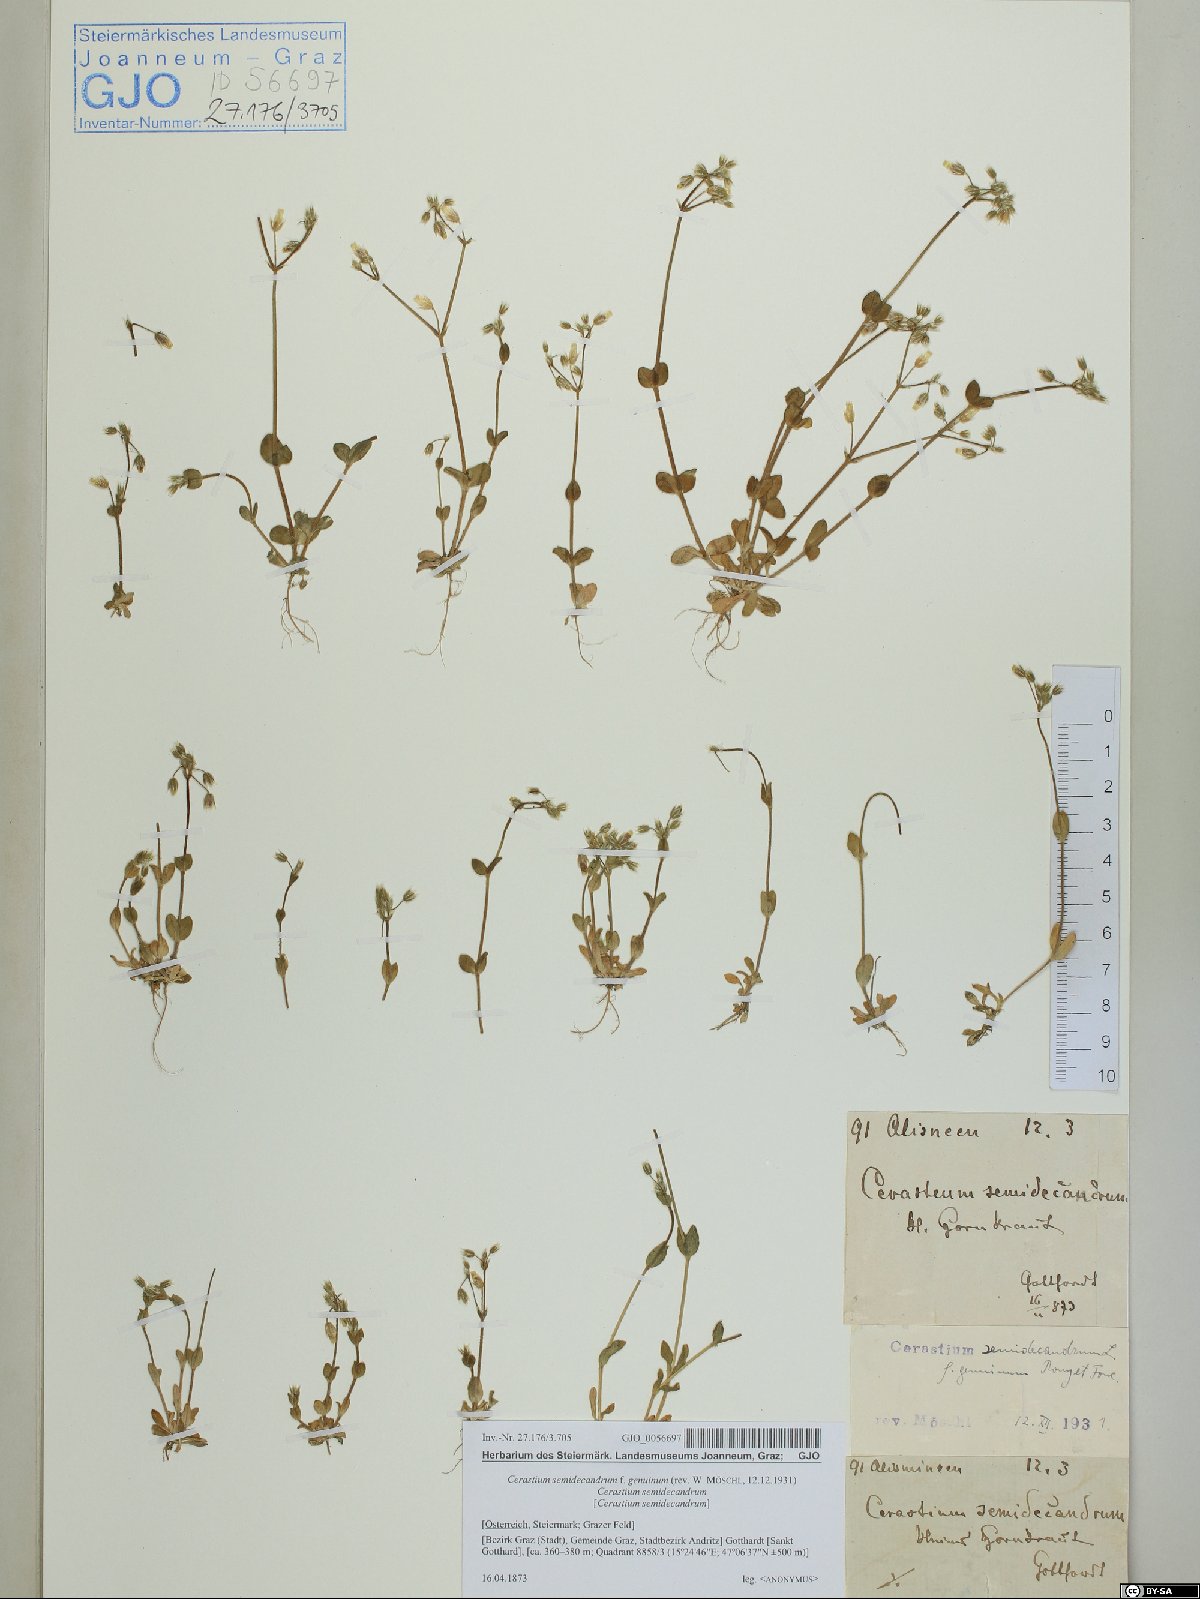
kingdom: Plantae
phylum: Tracheophyta
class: Magnoliopsida
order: Caryophyllales
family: Caryophyllaceae
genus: Cerastium
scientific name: Cerastium semidecandrum
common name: Little mouse-ear
